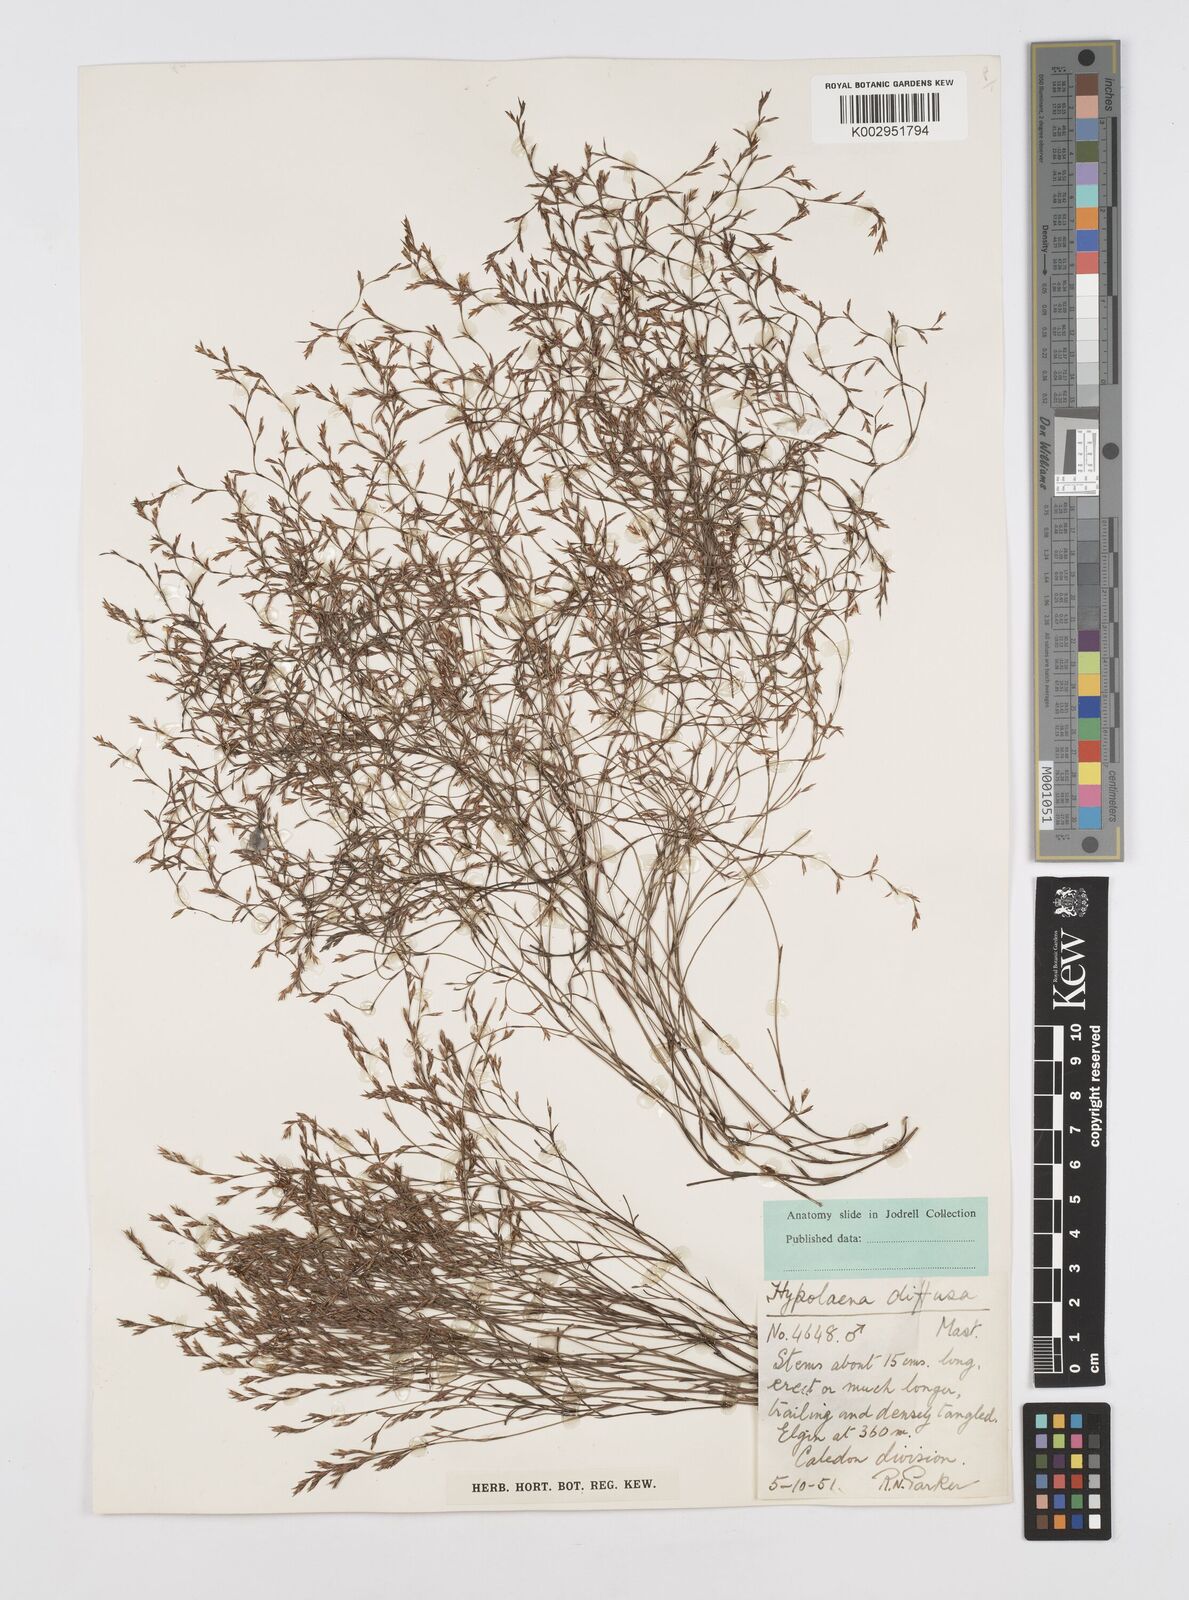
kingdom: Plantae
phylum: Tracheophyta
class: Liliopsida
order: Poales
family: Restionaceae
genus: Restio
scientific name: Restio versatilis
